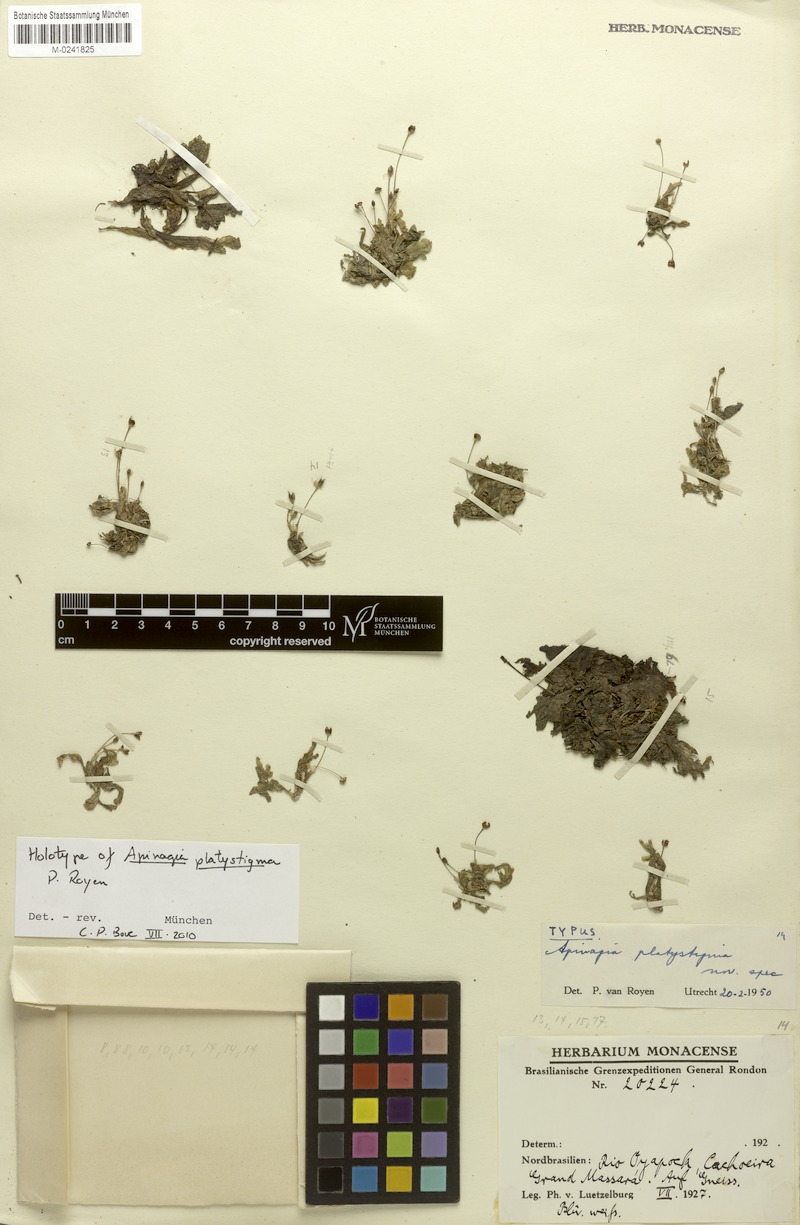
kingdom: Plantae
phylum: Tracheophyta
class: Magnoliopsida
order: Malpighiales
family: Podostemaceae
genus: Apinagia
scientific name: Apinagia platystigma
